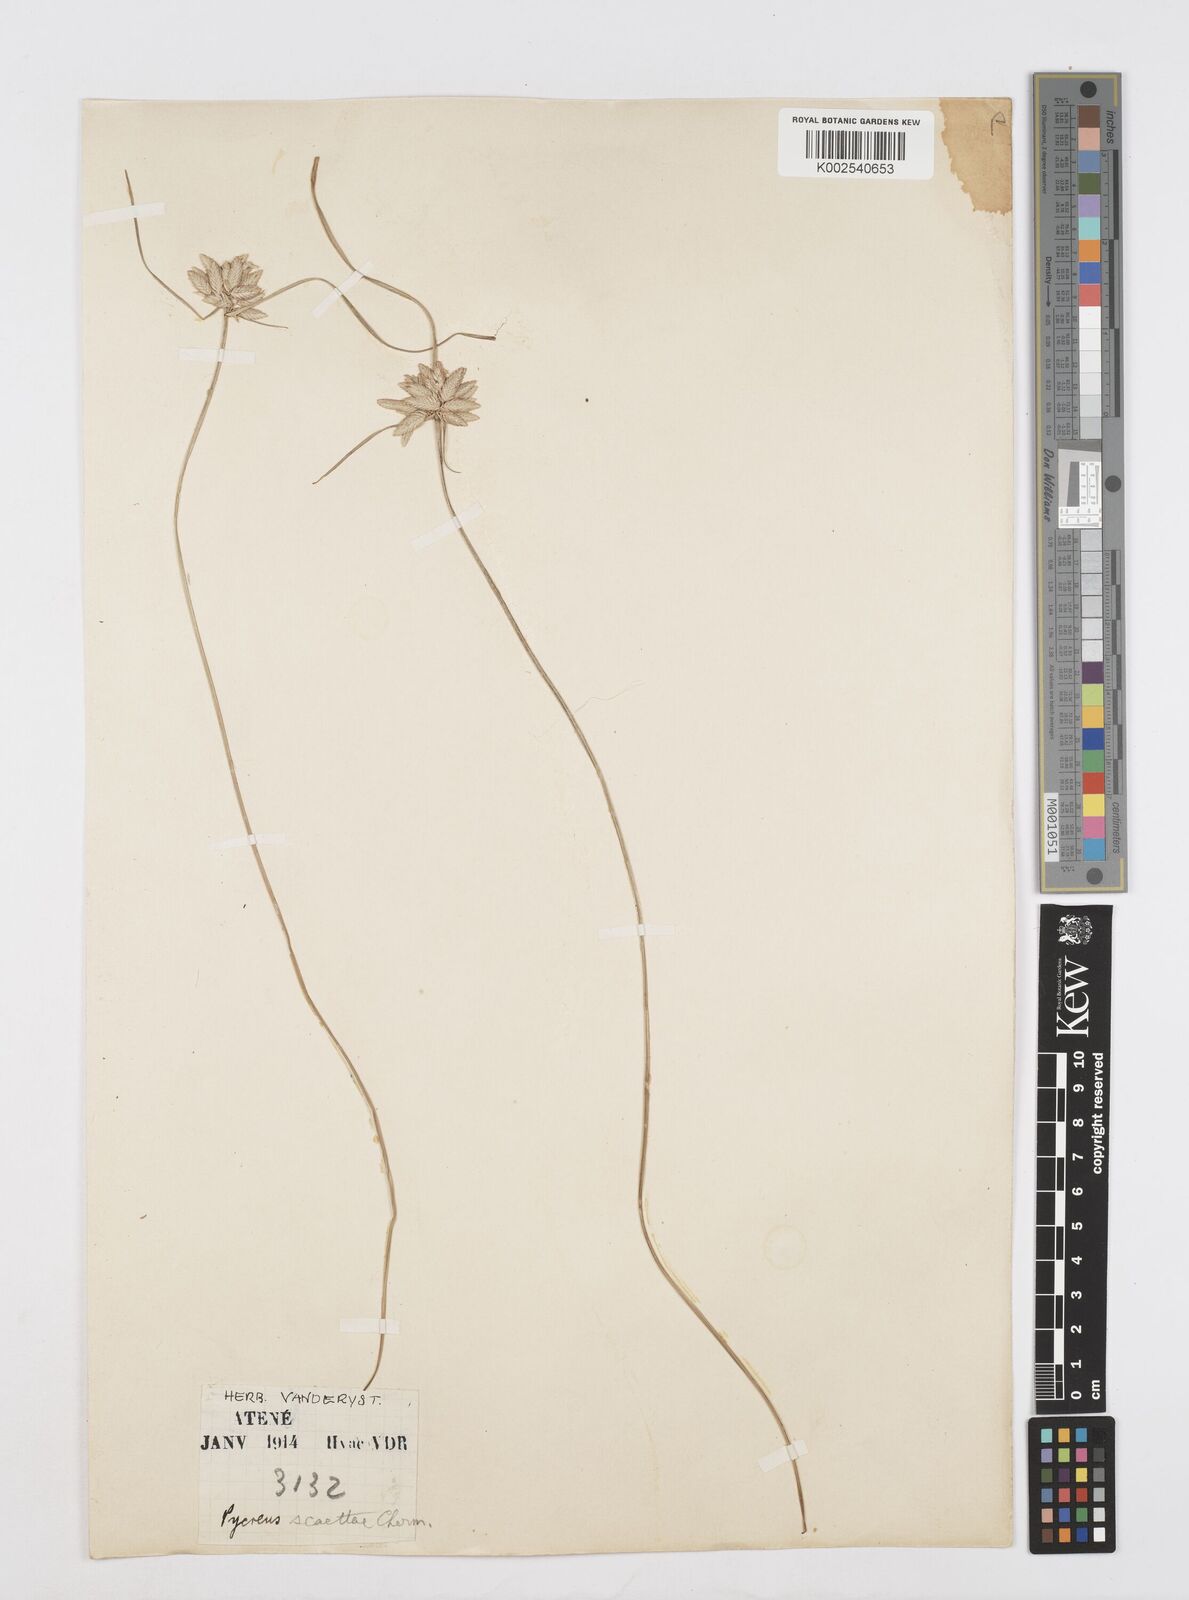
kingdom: Plantae
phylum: Tracheophyta
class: Liliopsida
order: Poales
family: Cyperaceae
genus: Cyperus
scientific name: Cyperus scaettae
